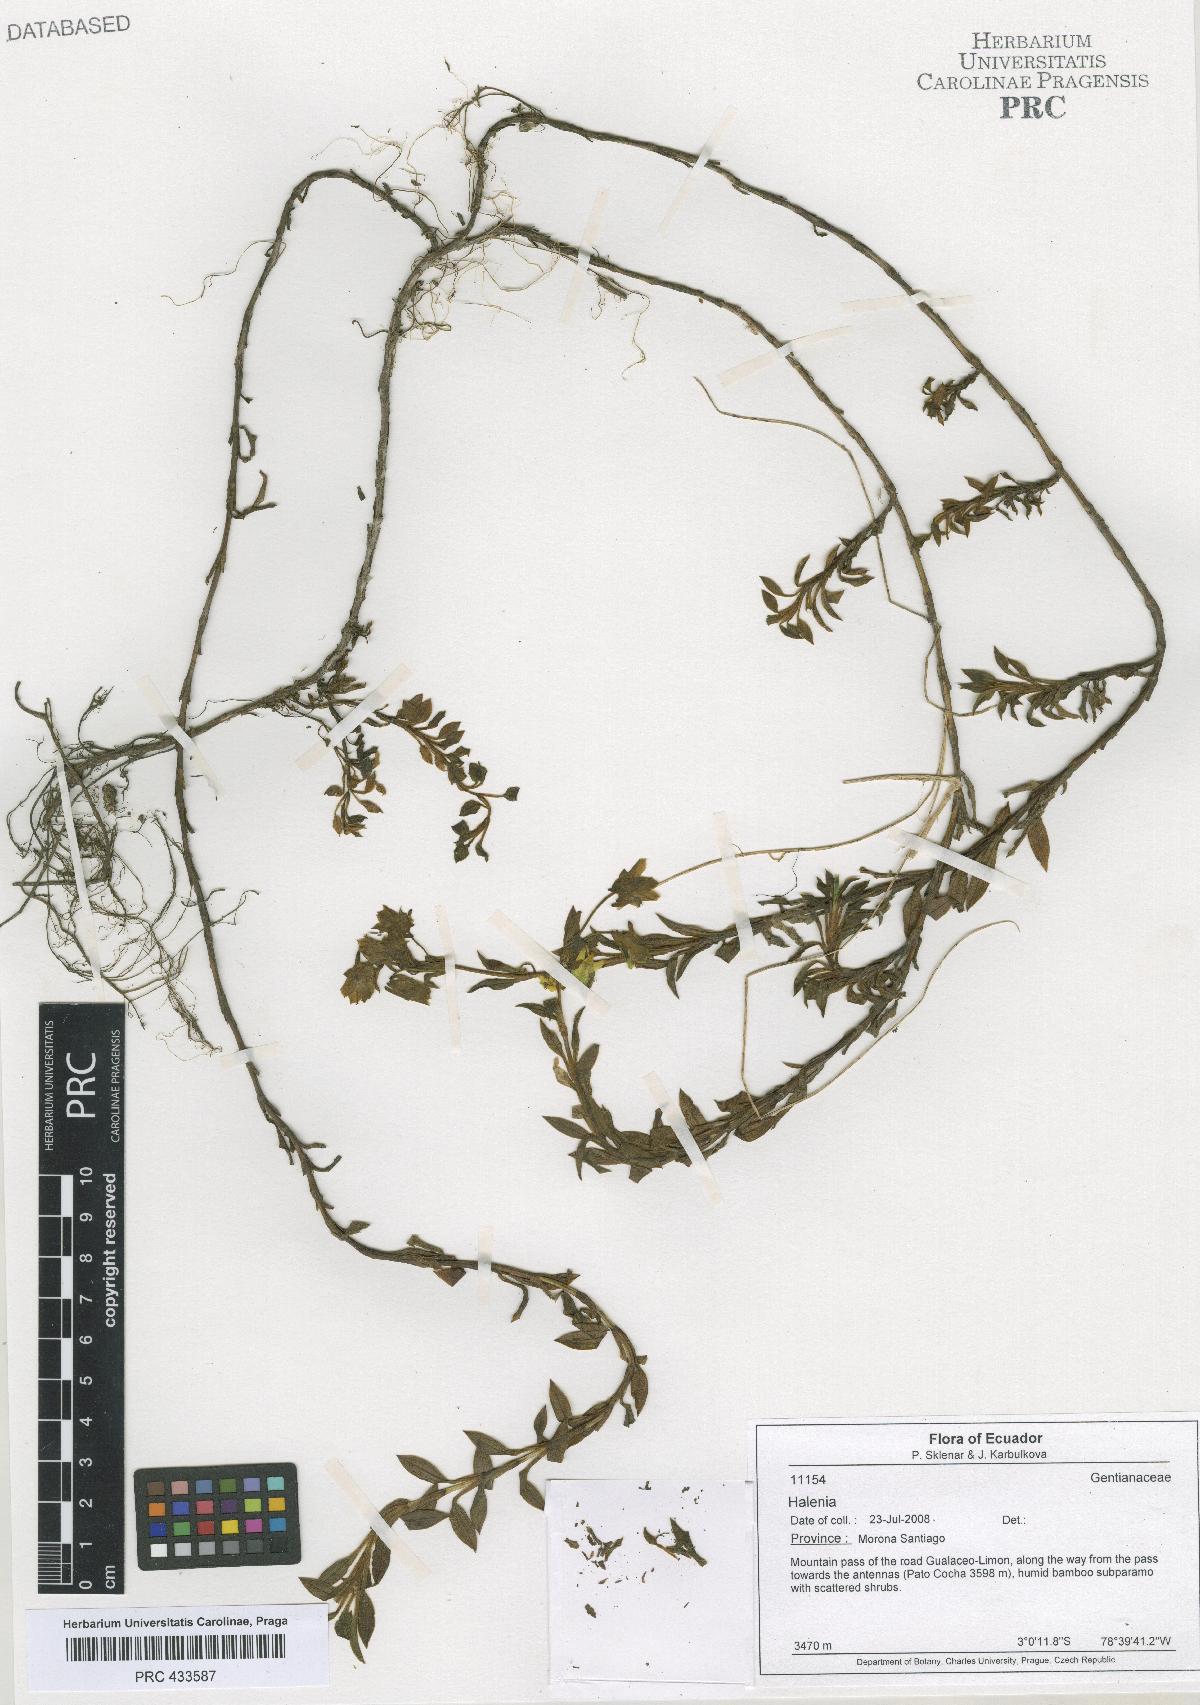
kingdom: Plantae
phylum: Tracheophyta
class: Magnoliopsida
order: Gentianales
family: Gentianaceae
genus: Halenia
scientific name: Halenia
